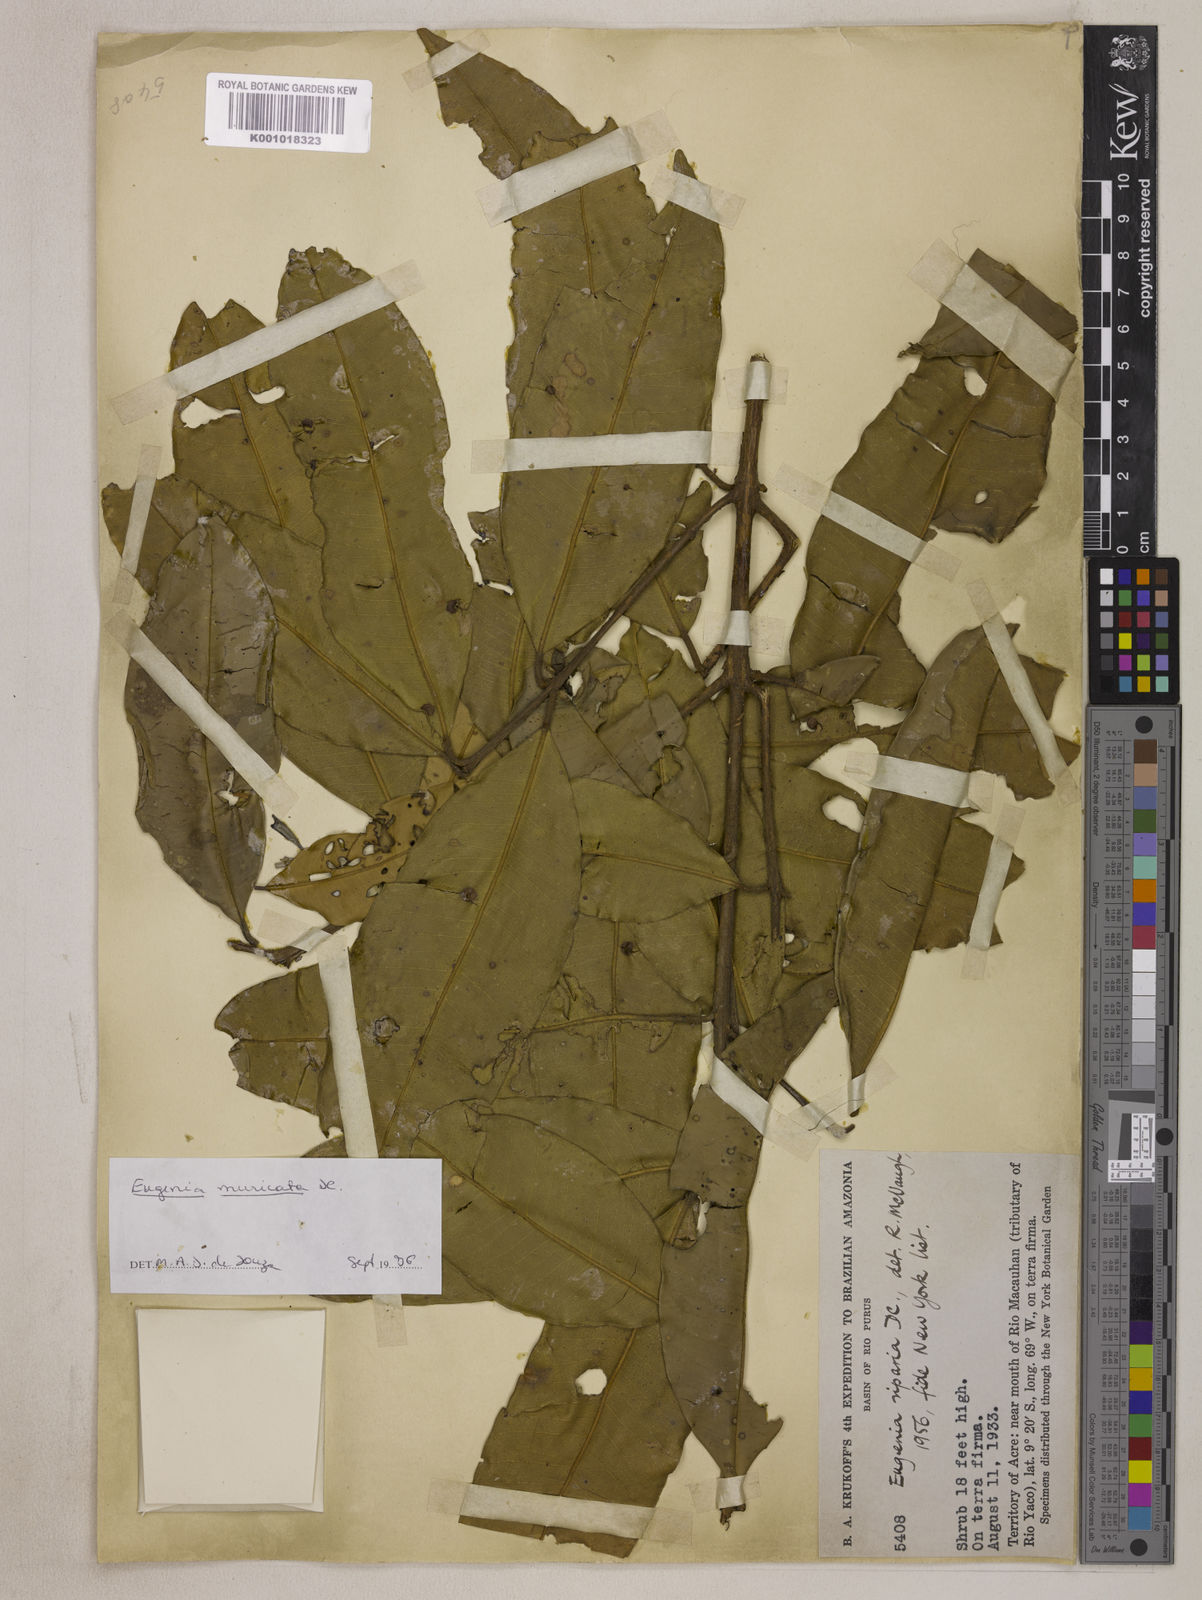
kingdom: Plantae
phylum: Tracheophyta
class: Magnoliopsida
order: Myrtales
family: Myrtaceae
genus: Eugenia
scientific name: Eugenia muricata
